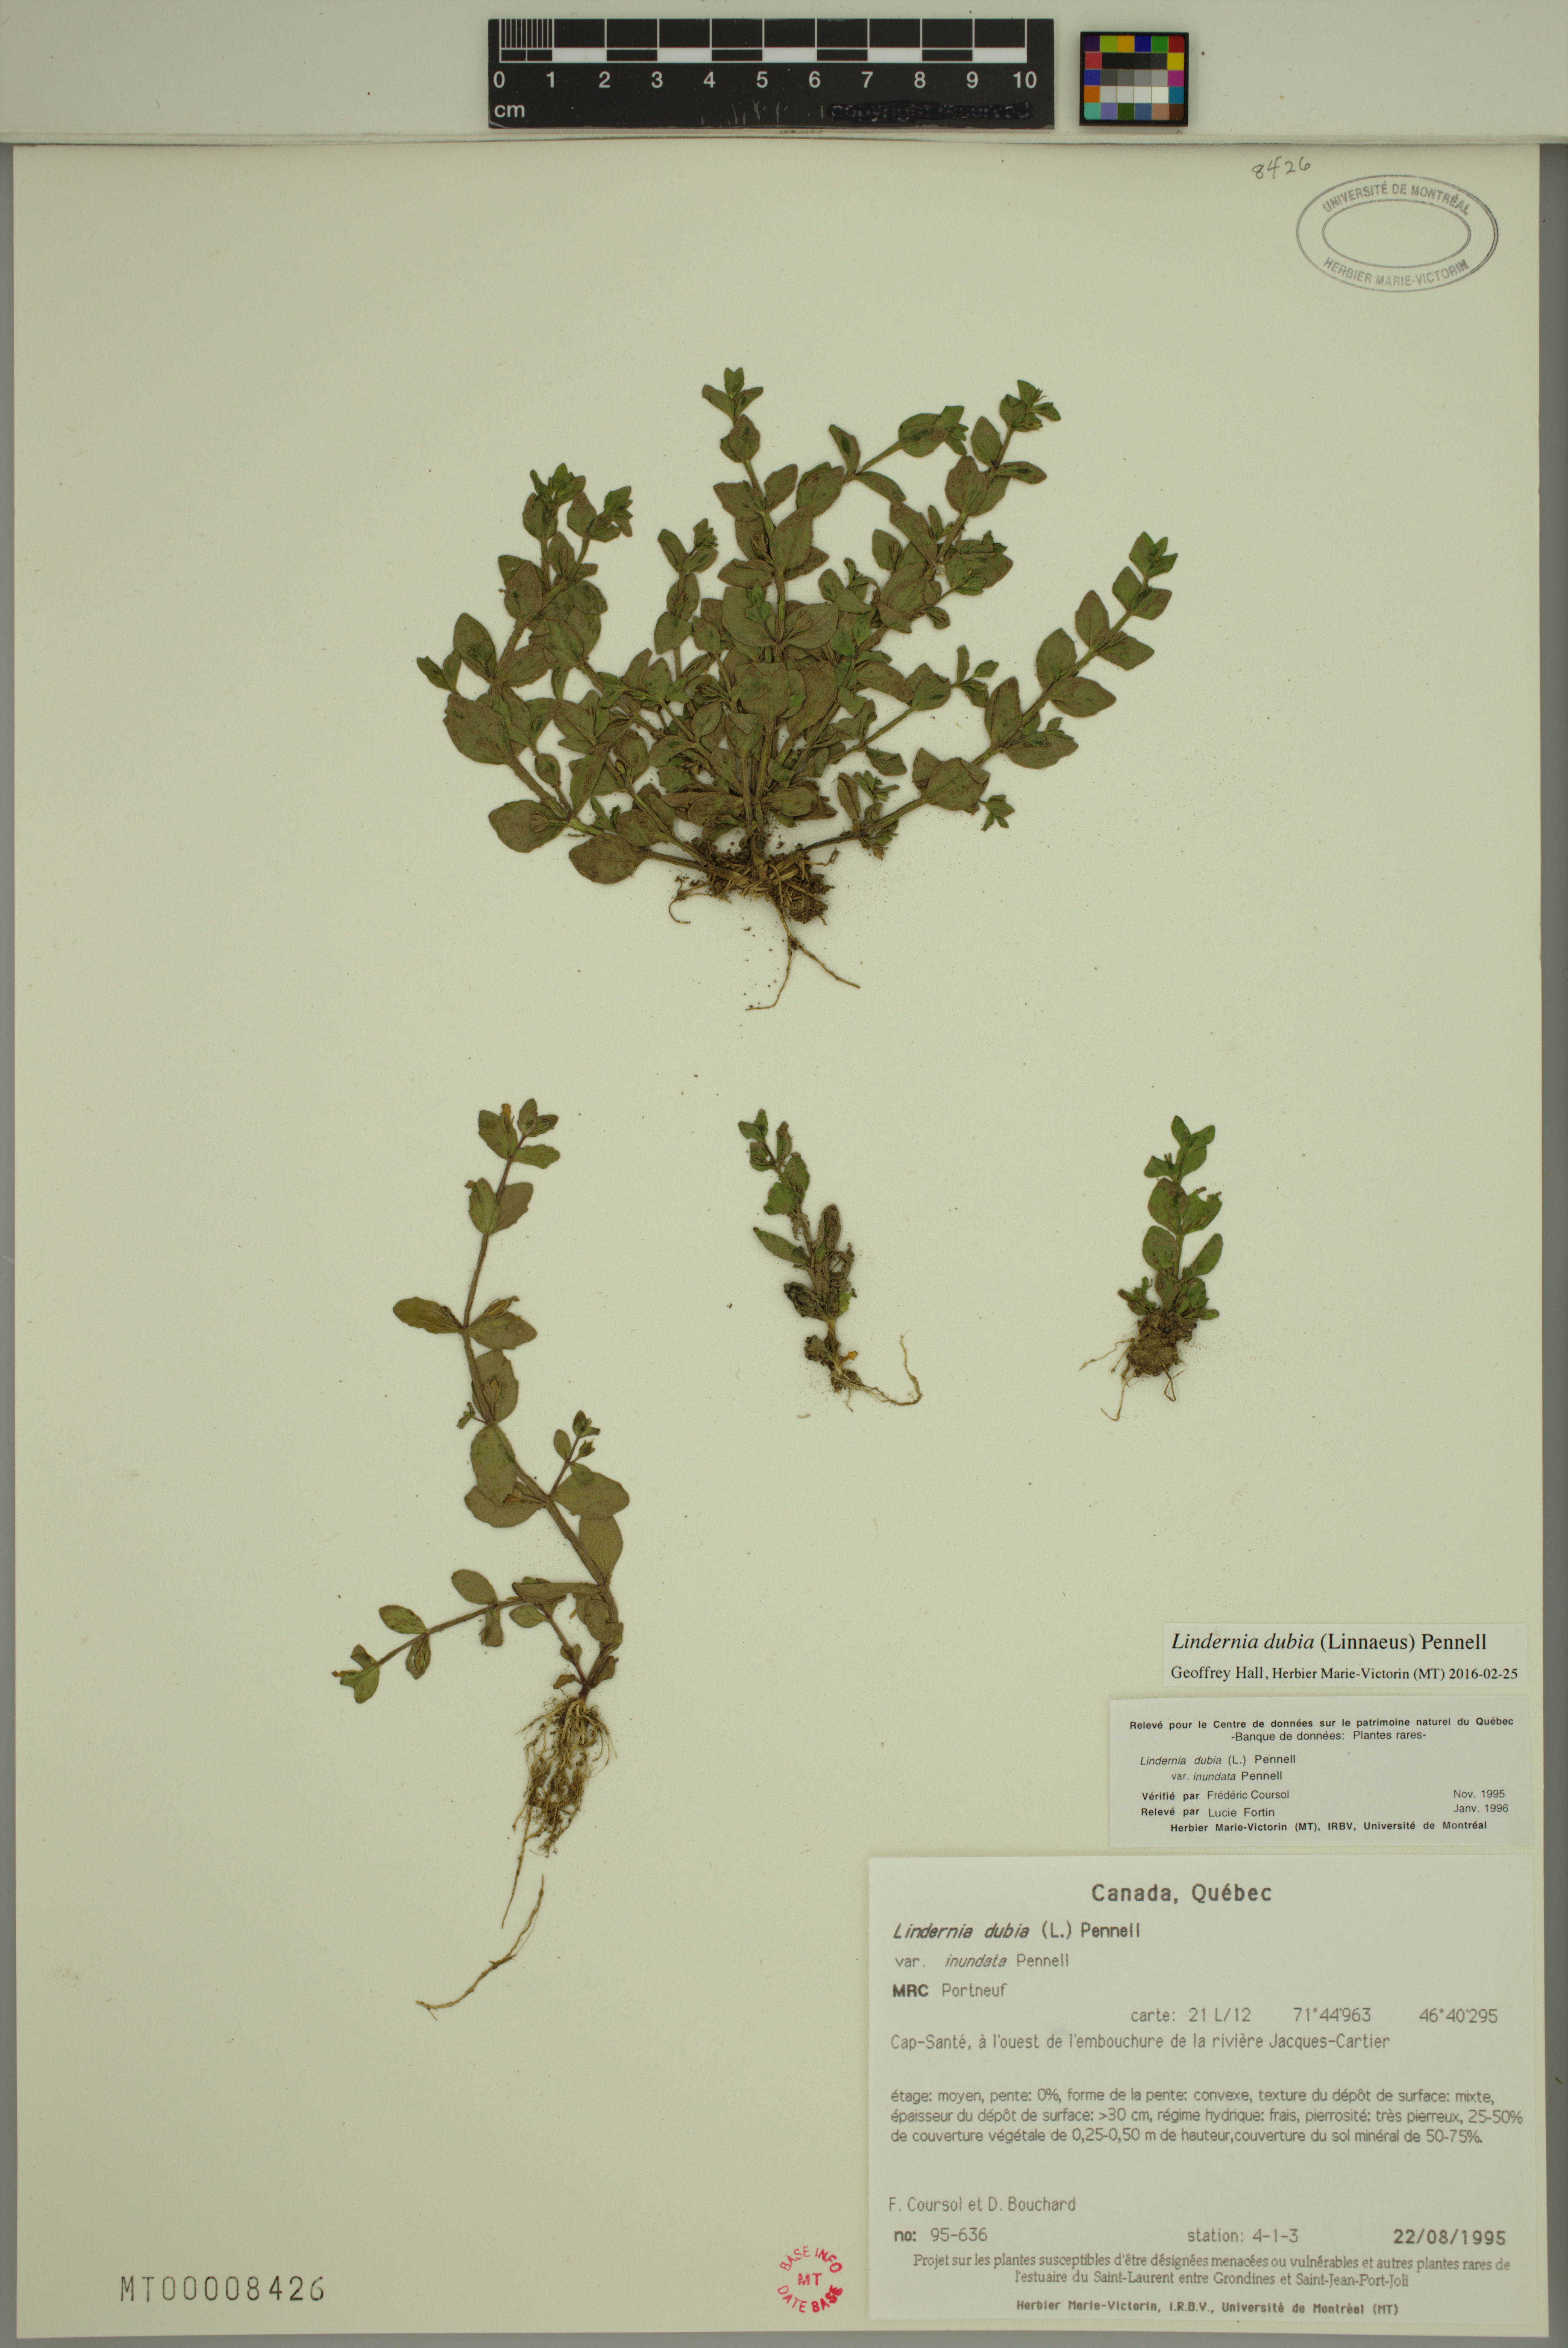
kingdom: Plantae
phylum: Tracheophyta
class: Magnoliopsida
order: Lamiales
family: Linderniaceae
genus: Lindernia
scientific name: Lindernia dubia
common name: Annual false pimpernel
